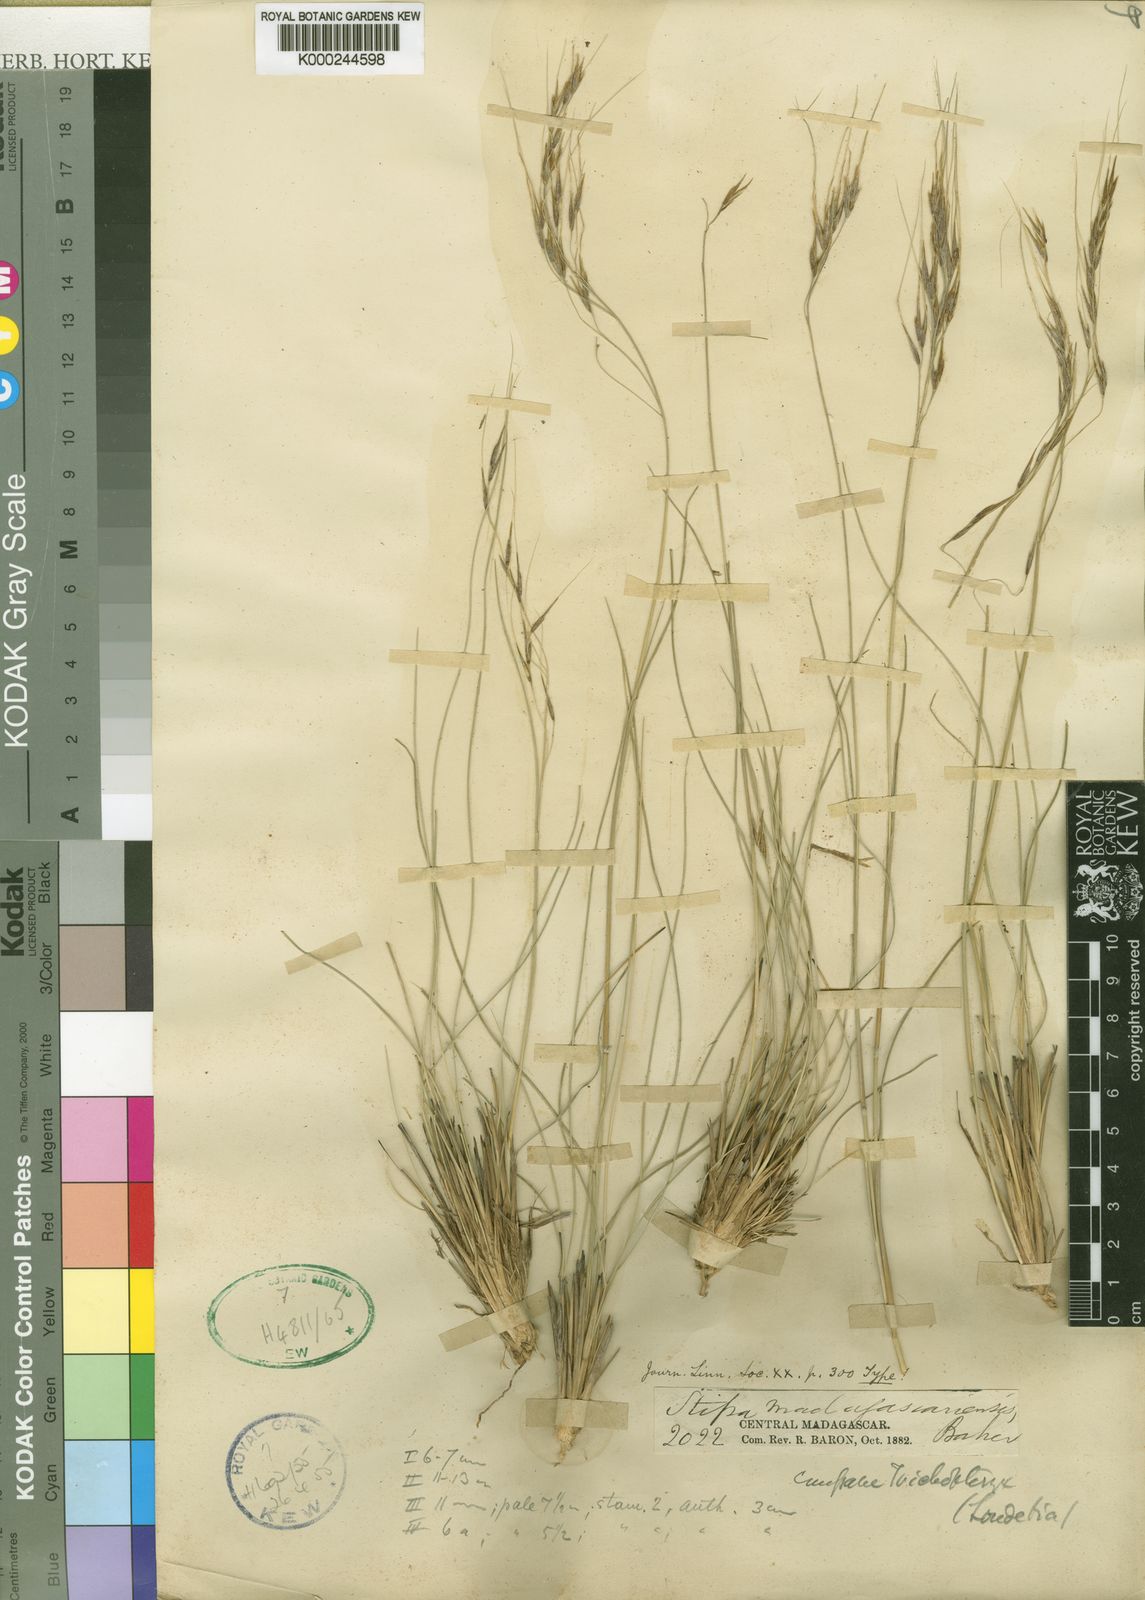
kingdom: Plantae
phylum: Tracheophyta
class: Liliopsida
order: Poales
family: Poaceae
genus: Loudetia
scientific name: Loudetia simplex
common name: Common russet grass
